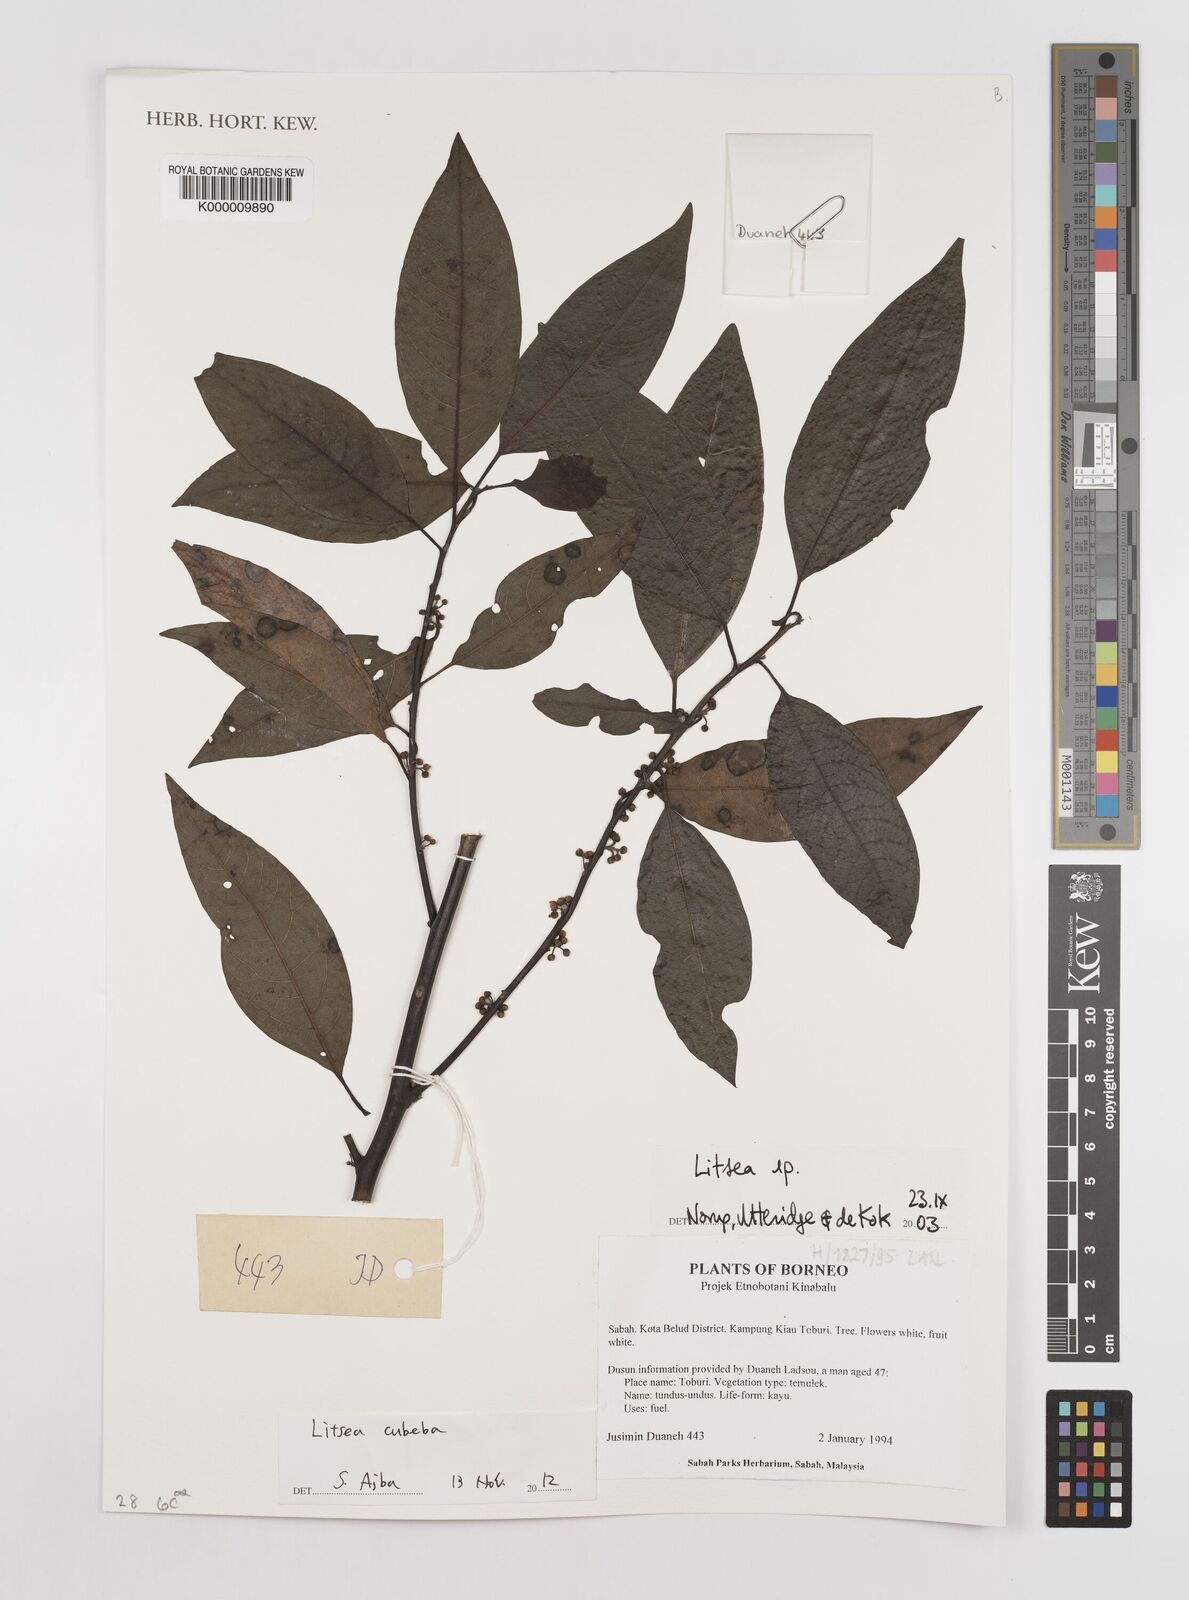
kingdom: Plantae
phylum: Tracheophyta
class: Magnoliopsida
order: Laurales
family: Lauraceae
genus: Litsea
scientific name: Litsea
